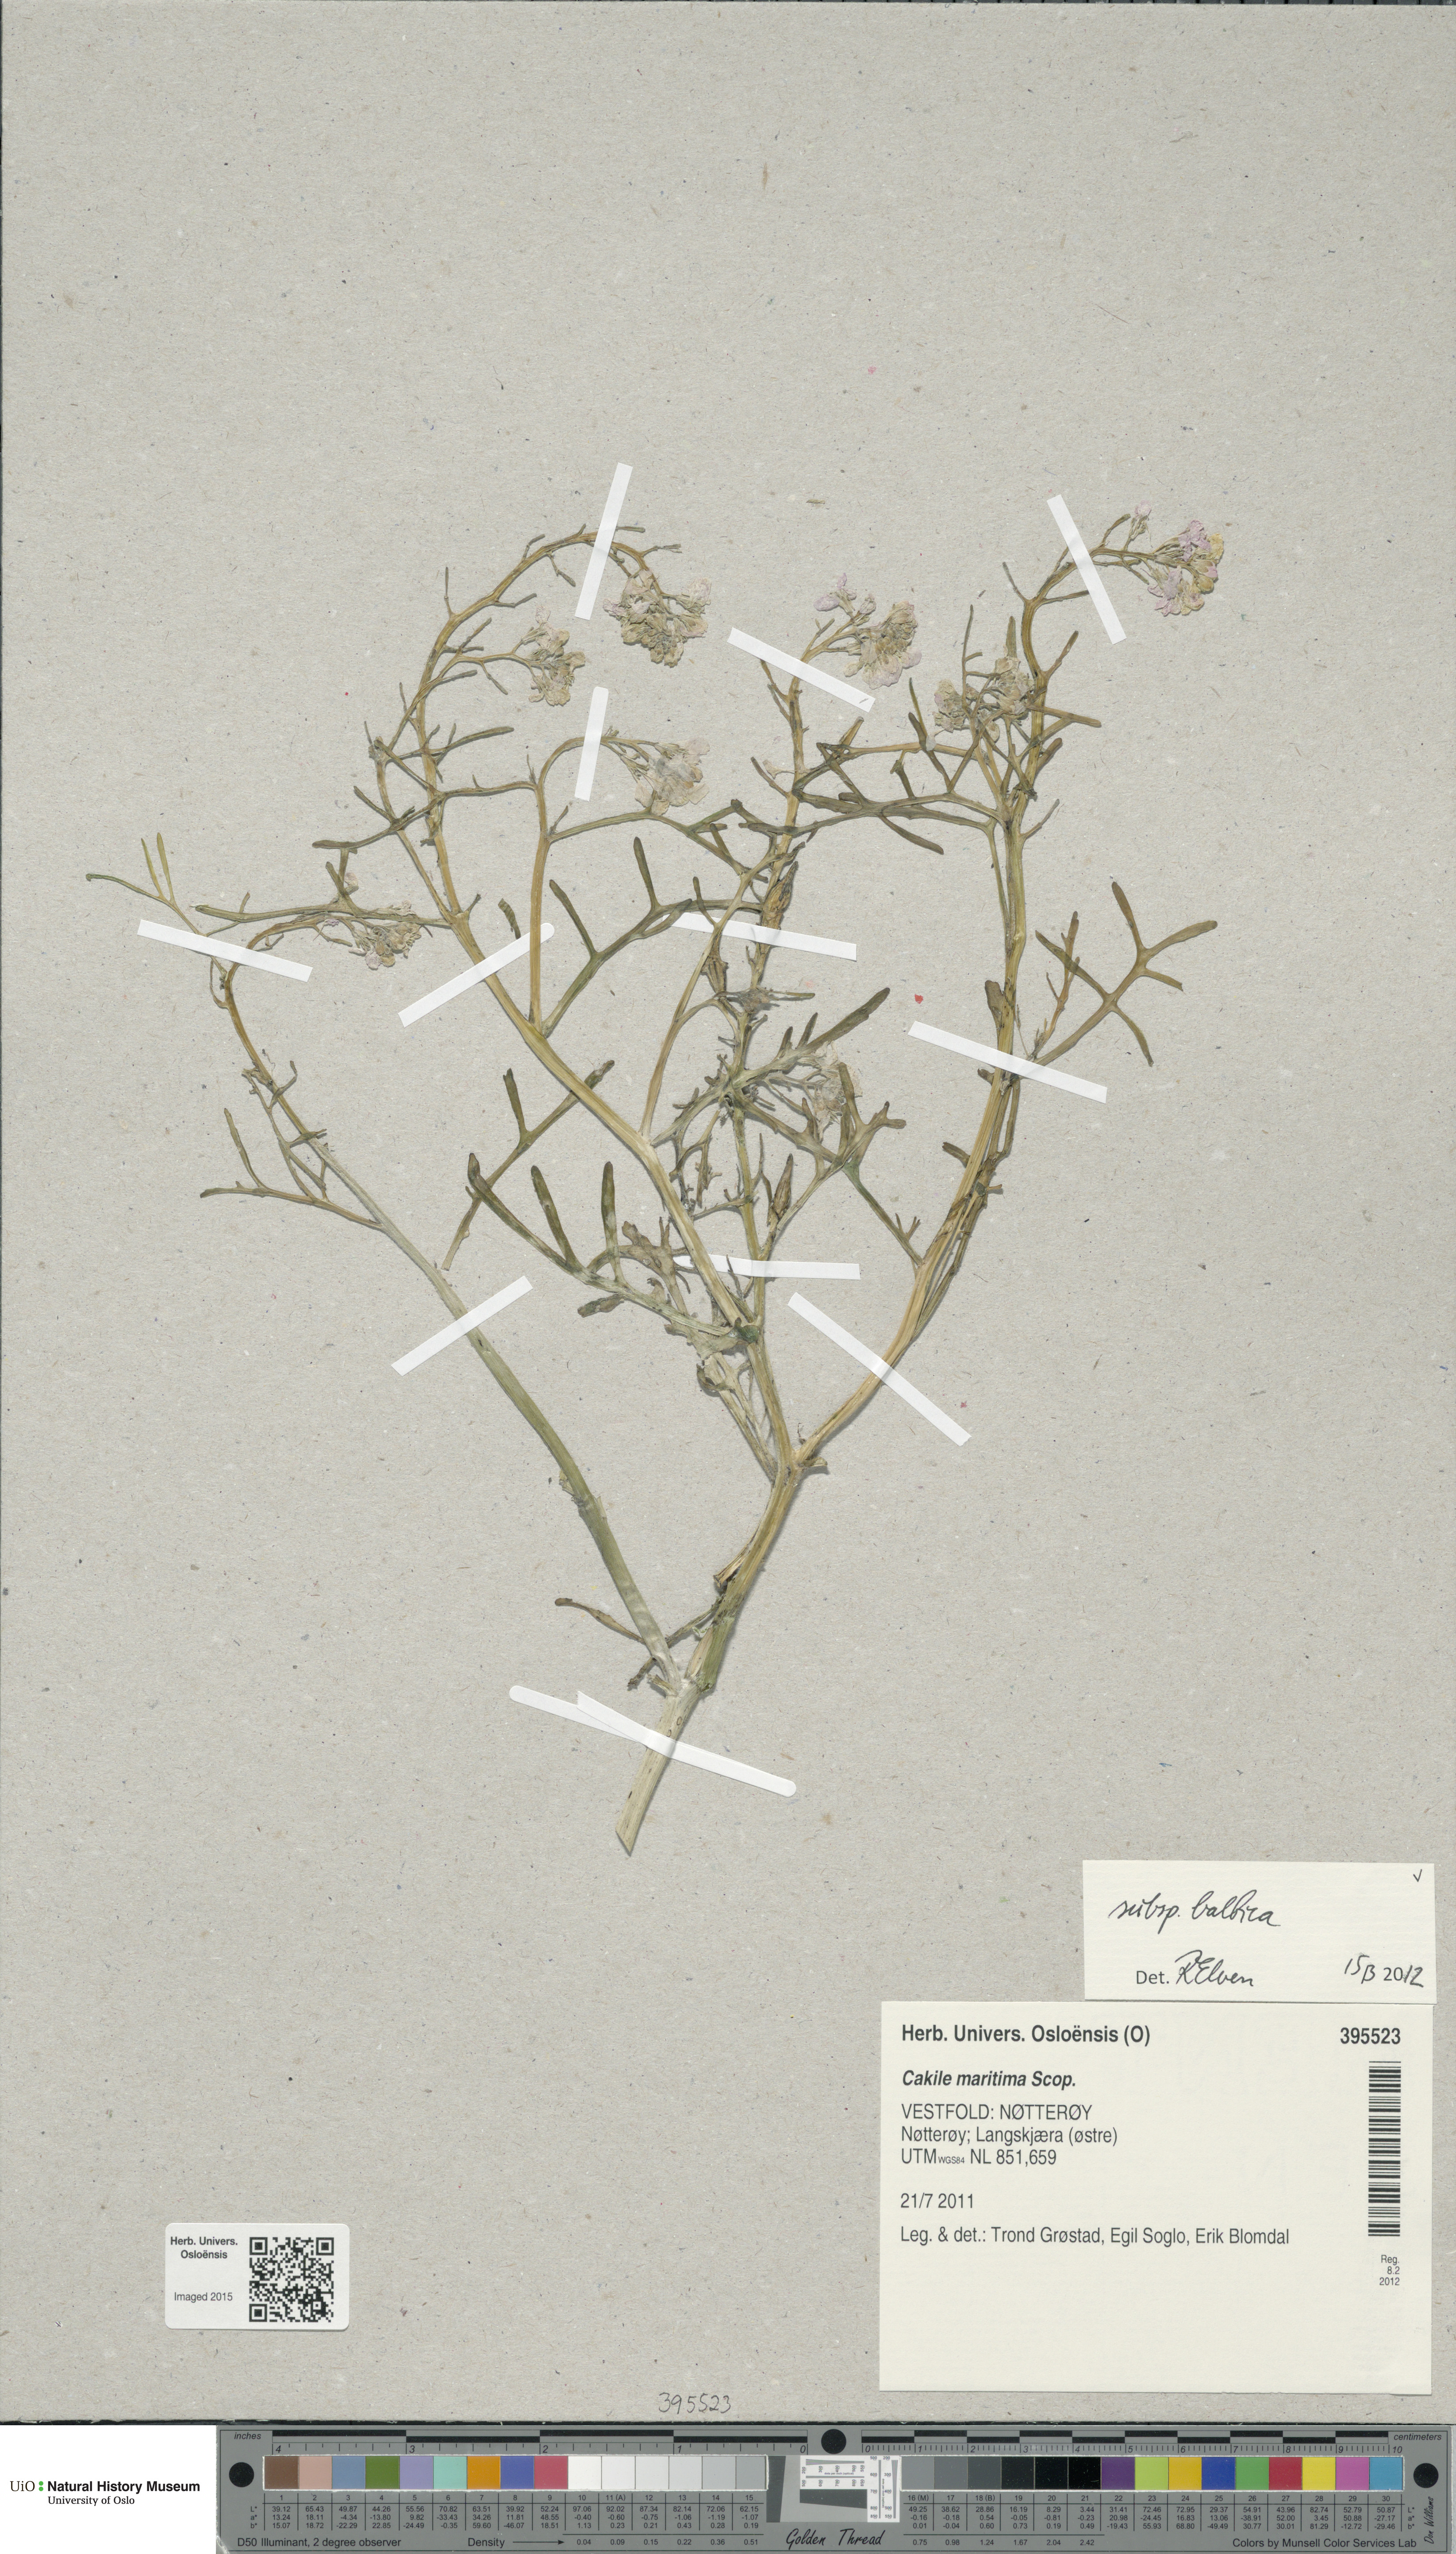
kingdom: Plantae
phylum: Tracheophyta
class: Magnoliopsida
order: Brassicales
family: Brassicaceae
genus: Cakile
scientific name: Cakile maritima
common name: Sea rocket
